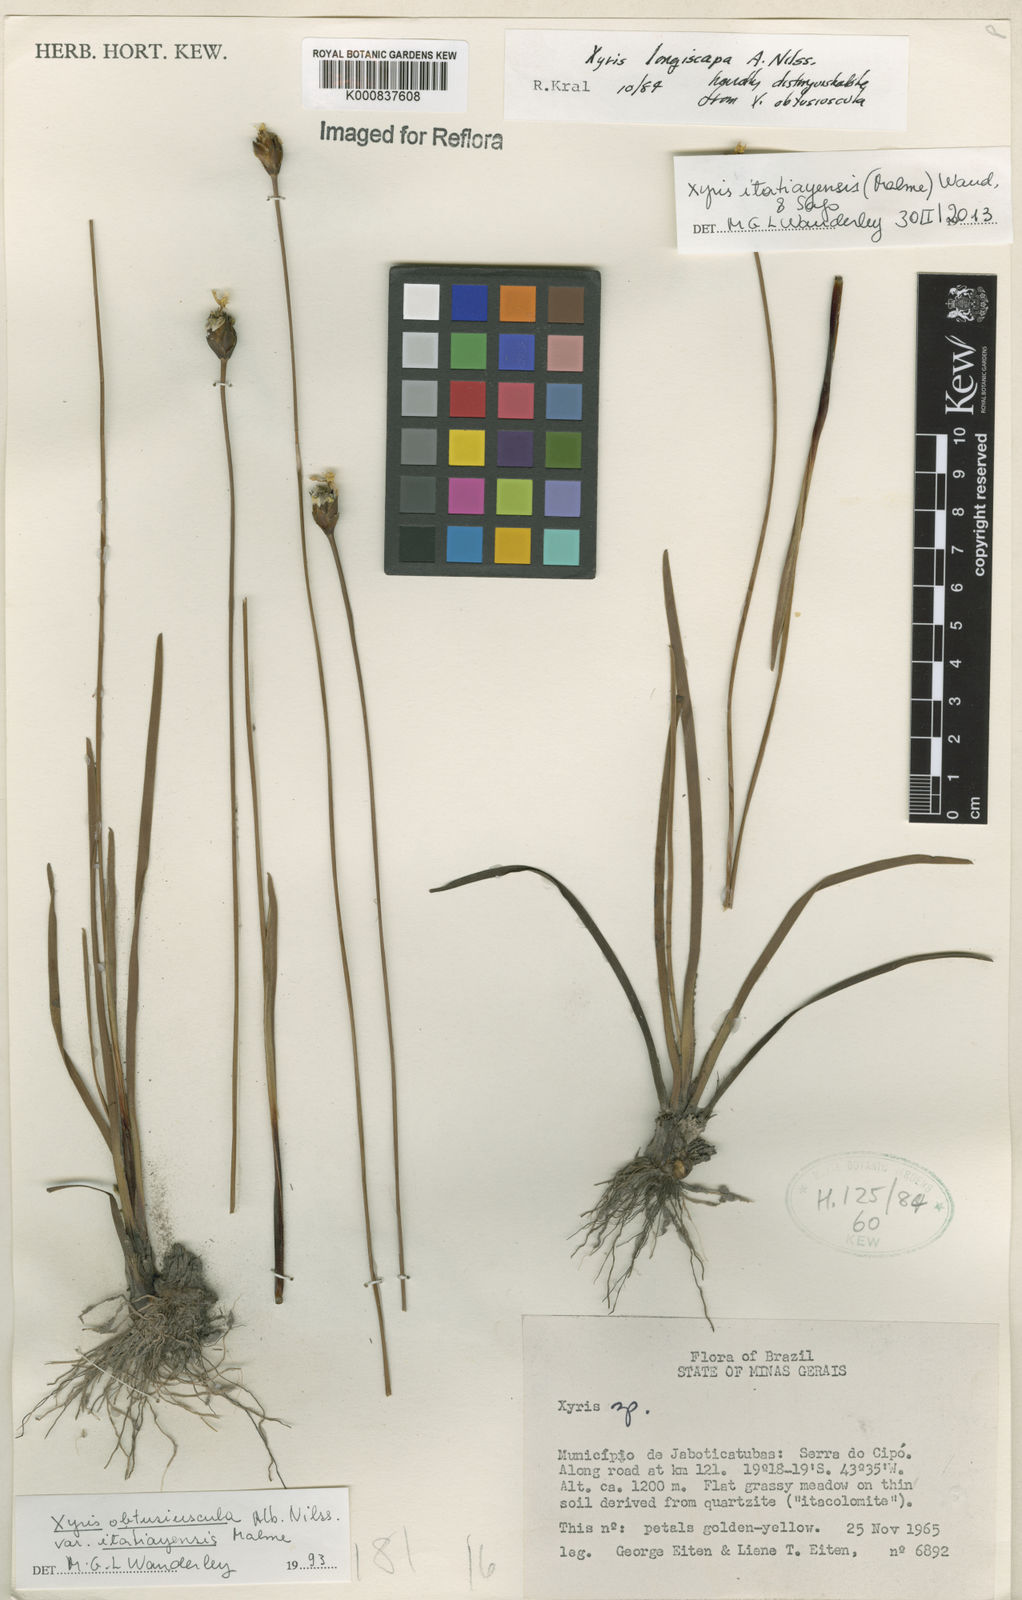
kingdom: Plantae
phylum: Tracheophyta
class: Liliopsida
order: Poales
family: Xyridaceae
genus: Xyris
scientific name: Xyris itatiayensis
